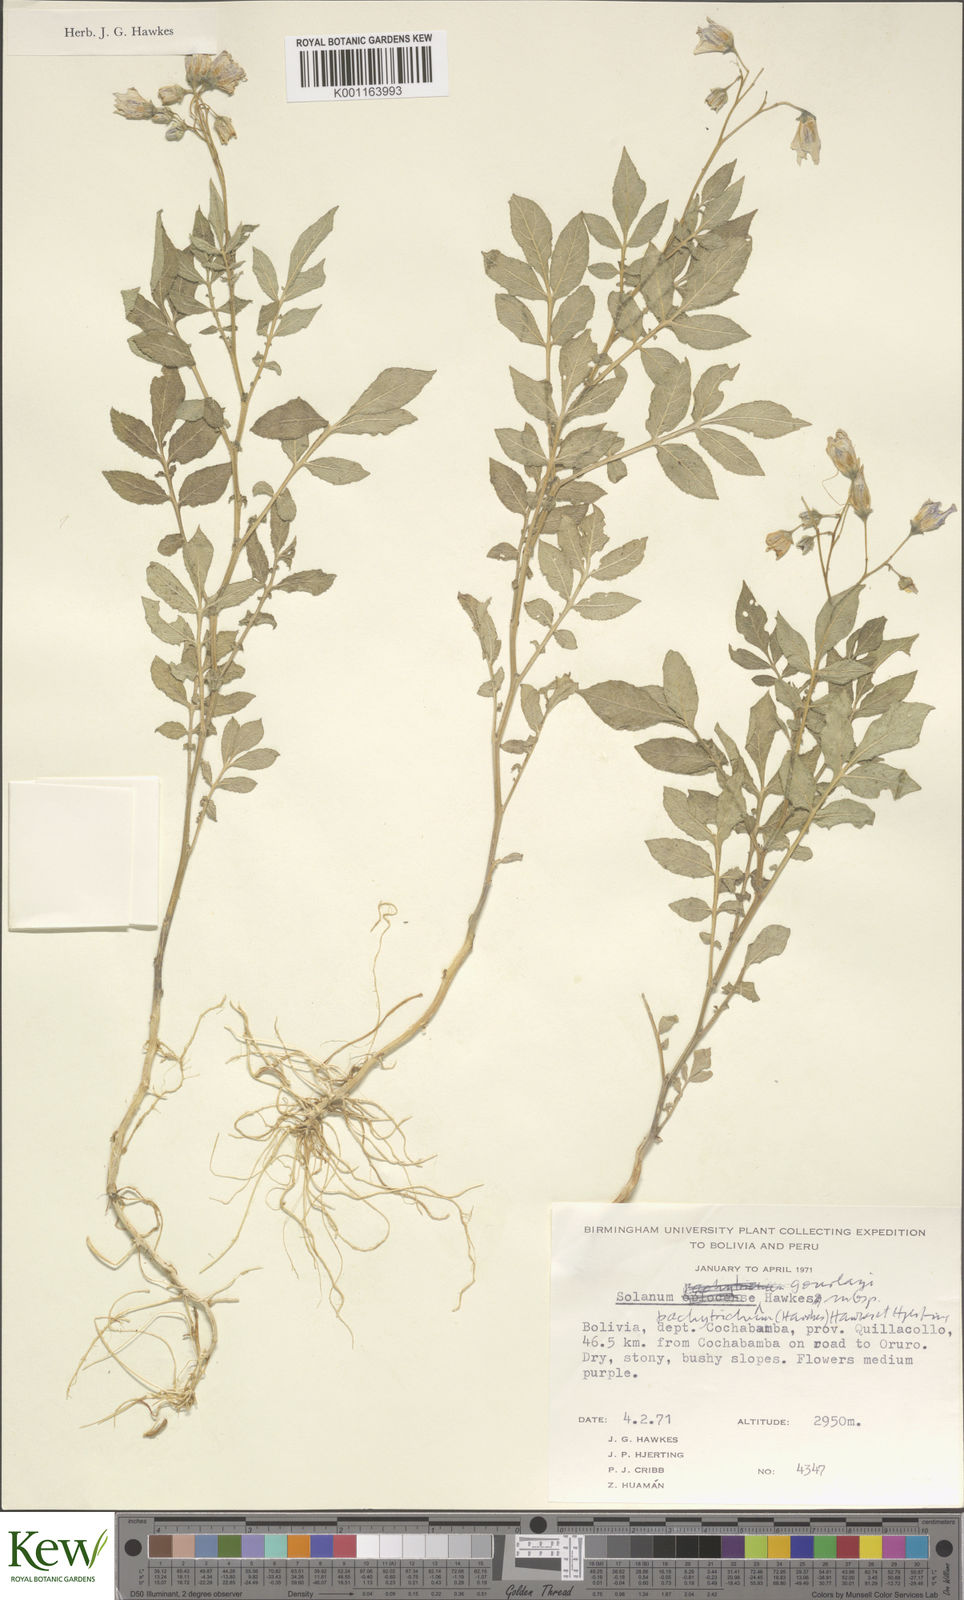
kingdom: Plantae
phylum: Tracheophyta
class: Magnoliopsida
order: Solanales
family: Solanaceae
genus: Solanum
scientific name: Solanum brevicaule
